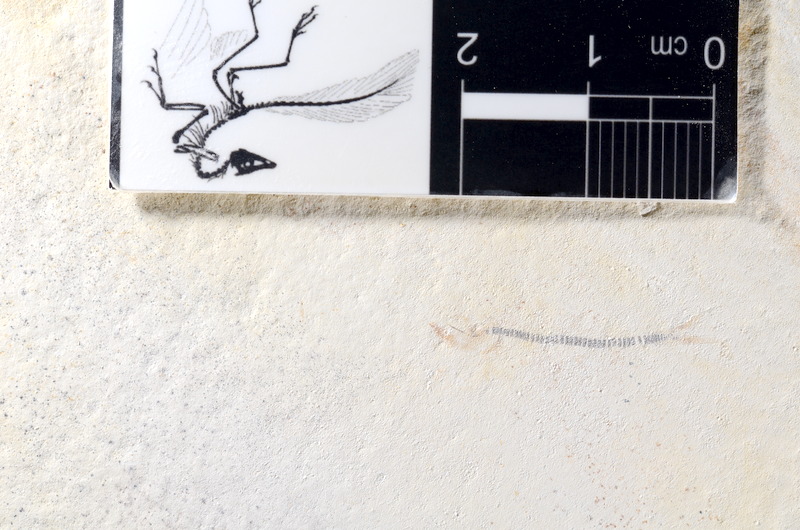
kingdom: Animalia
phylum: Chordata
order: Salmoniformes
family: Orthogonikleithridae
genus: Orthogonikleithrus
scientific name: Orthogonikleithrus hoelli
